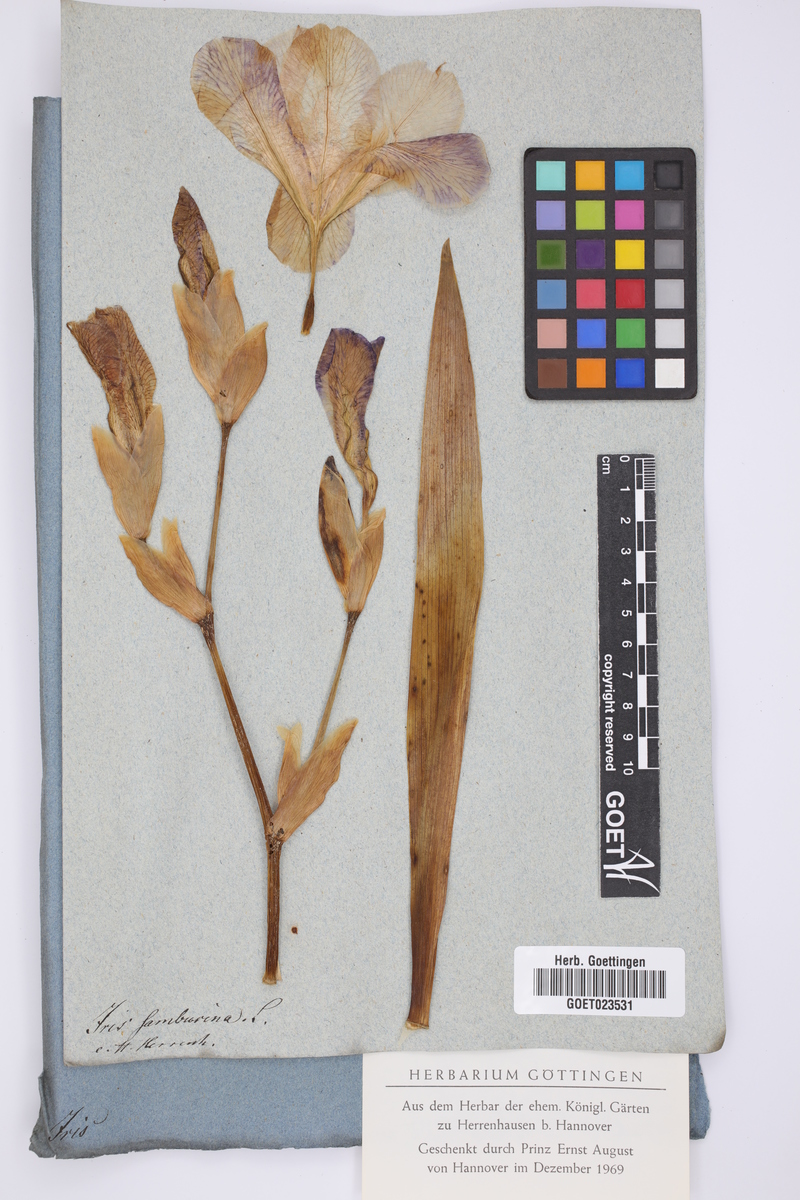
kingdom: Plantae
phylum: Tracheophyta
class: Liliopsida
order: Asparagales
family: Iridaceae
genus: Iris
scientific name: Iris germanica
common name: German iris
